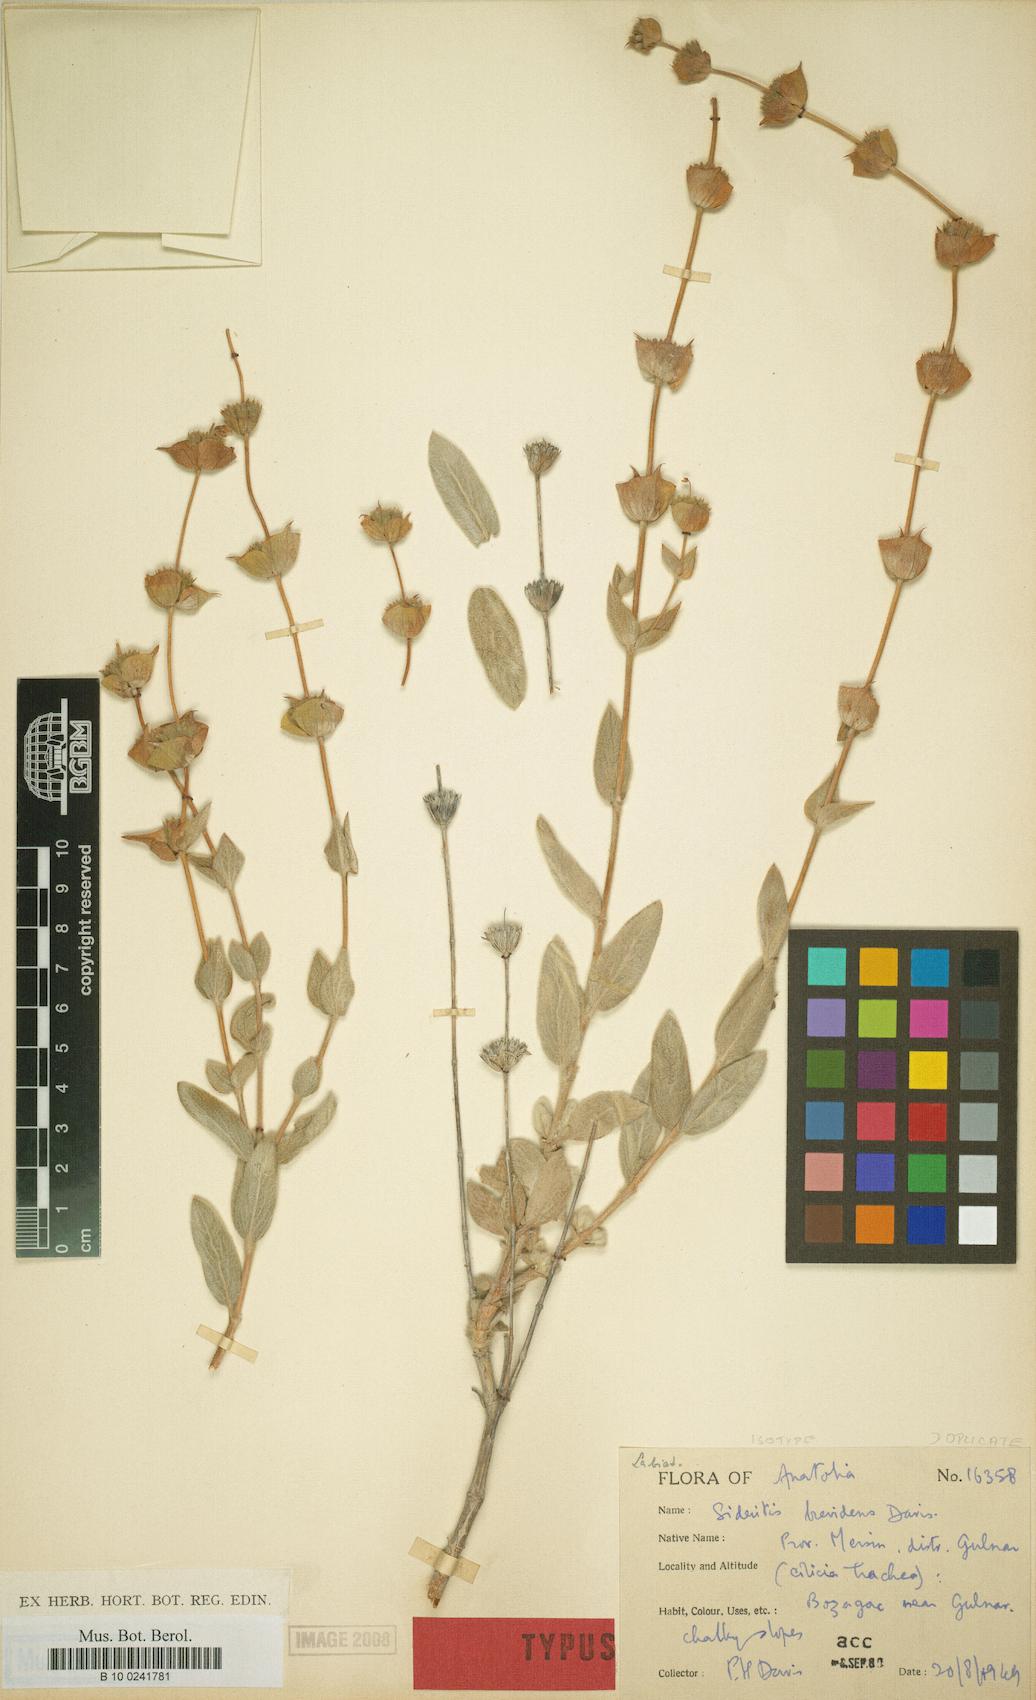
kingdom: Plantae
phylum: Tracheophyta
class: Magnoliopsida
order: Lamiales
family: Lamiaceae
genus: Sideritis
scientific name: Sideritis brevidens
